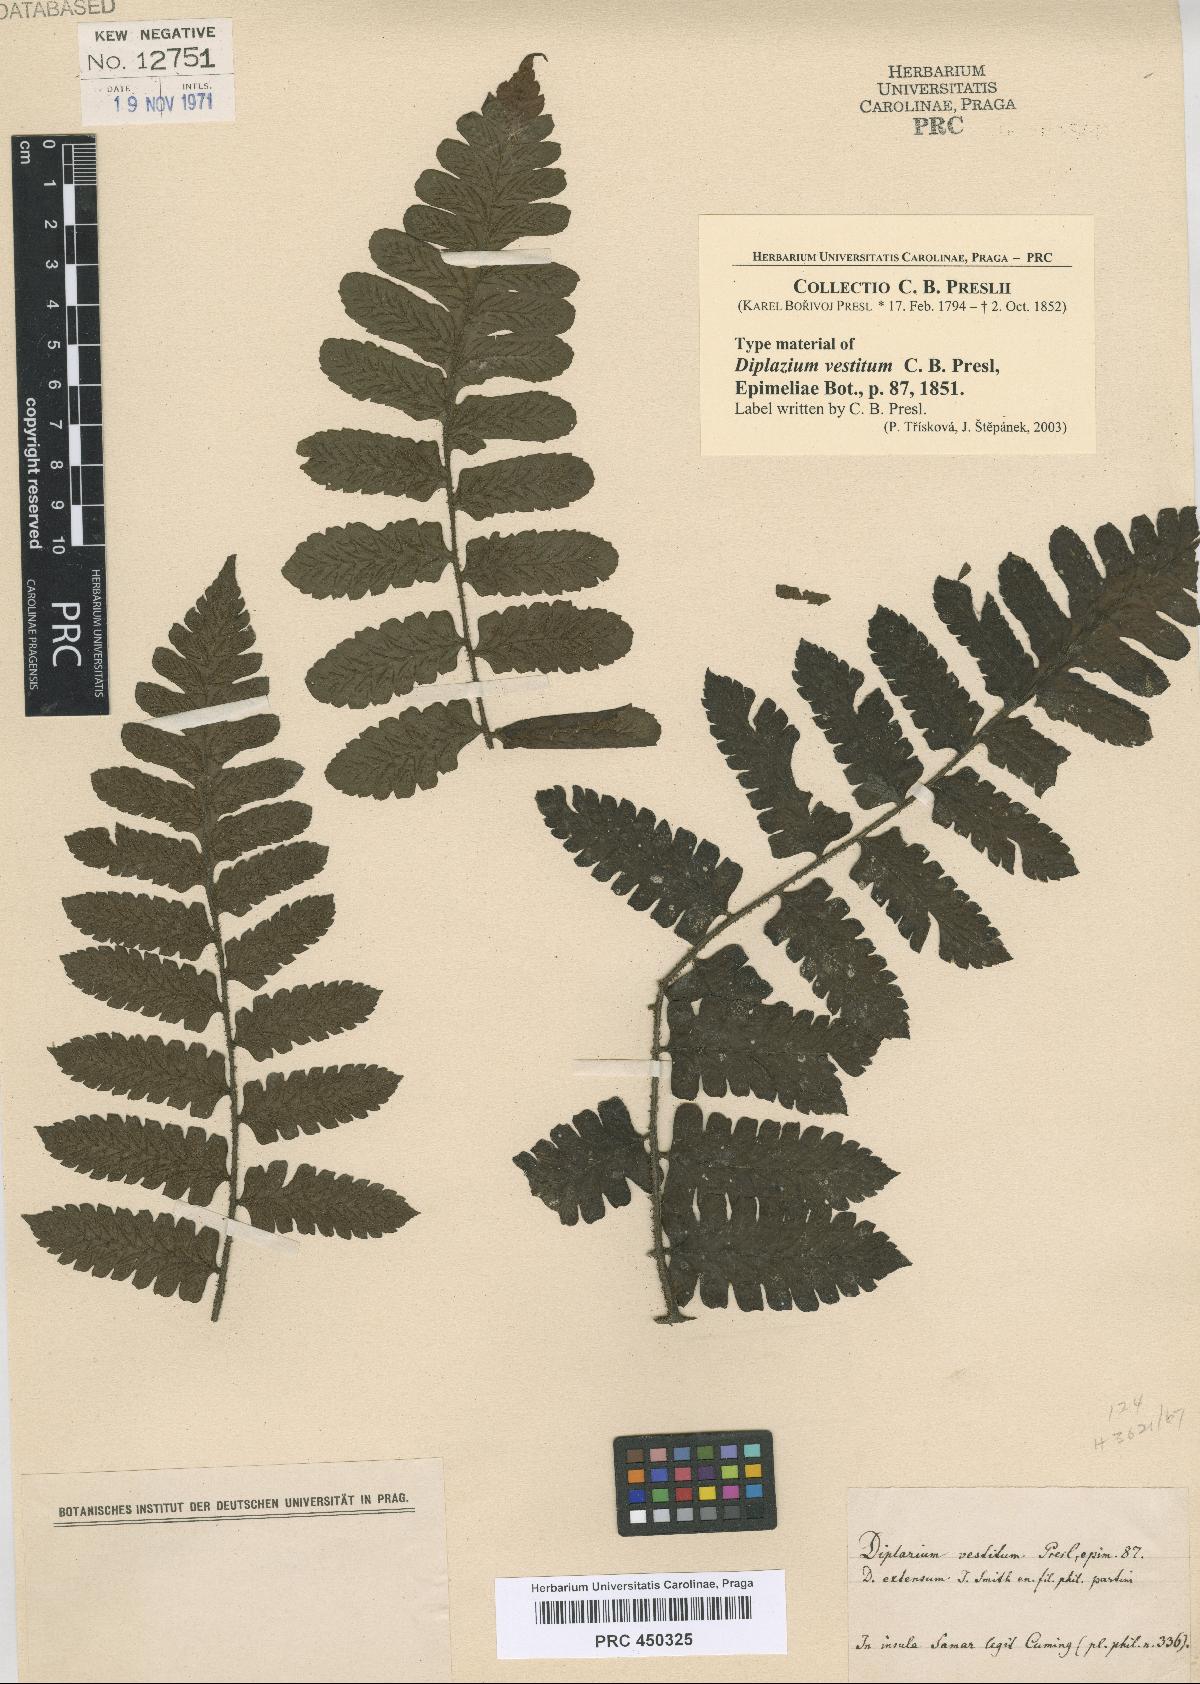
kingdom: Plantae
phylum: Tracheophyta
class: Polypodiopsida
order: Polypodiales
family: Athyriaceae
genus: Diplazium
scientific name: Diplazium vestitum
